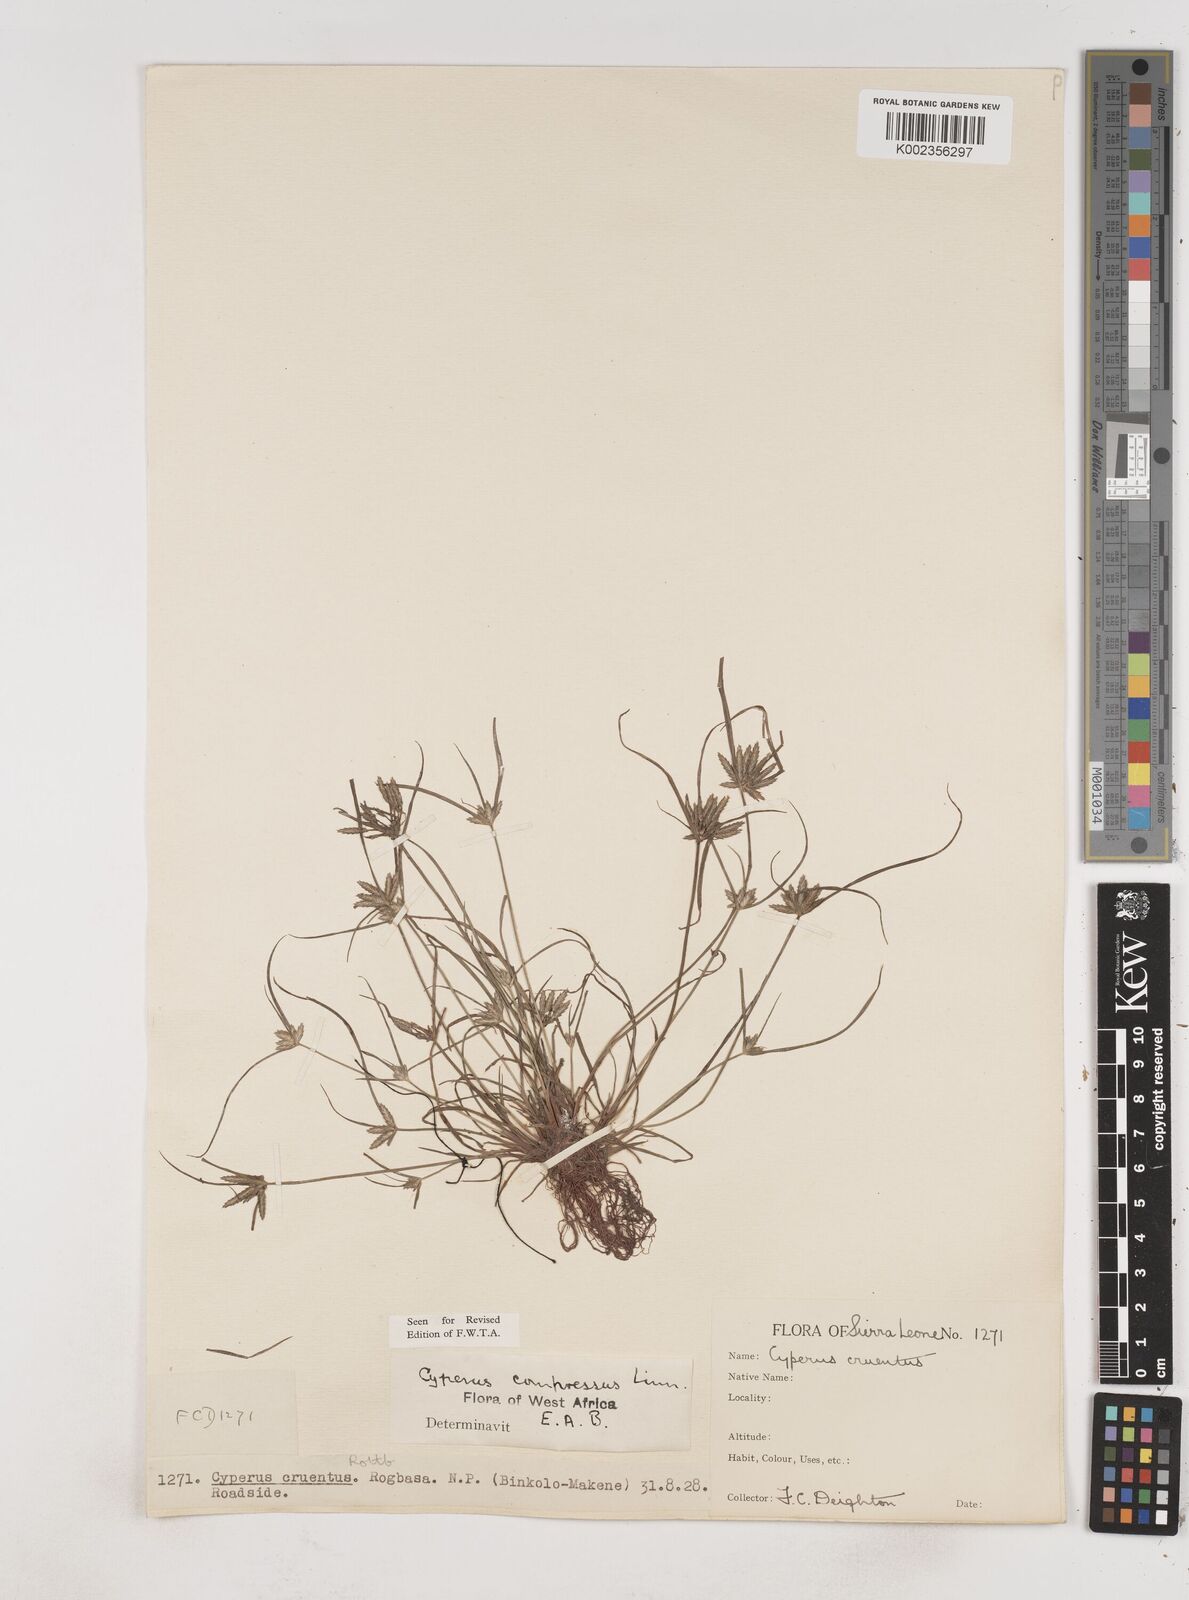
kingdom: Plantae
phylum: Tracheophyta
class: Liliopsida
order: Poales
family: Cyperaceae
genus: Cyperus
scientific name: Cyperus compressus
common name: Poorland flatsedge
